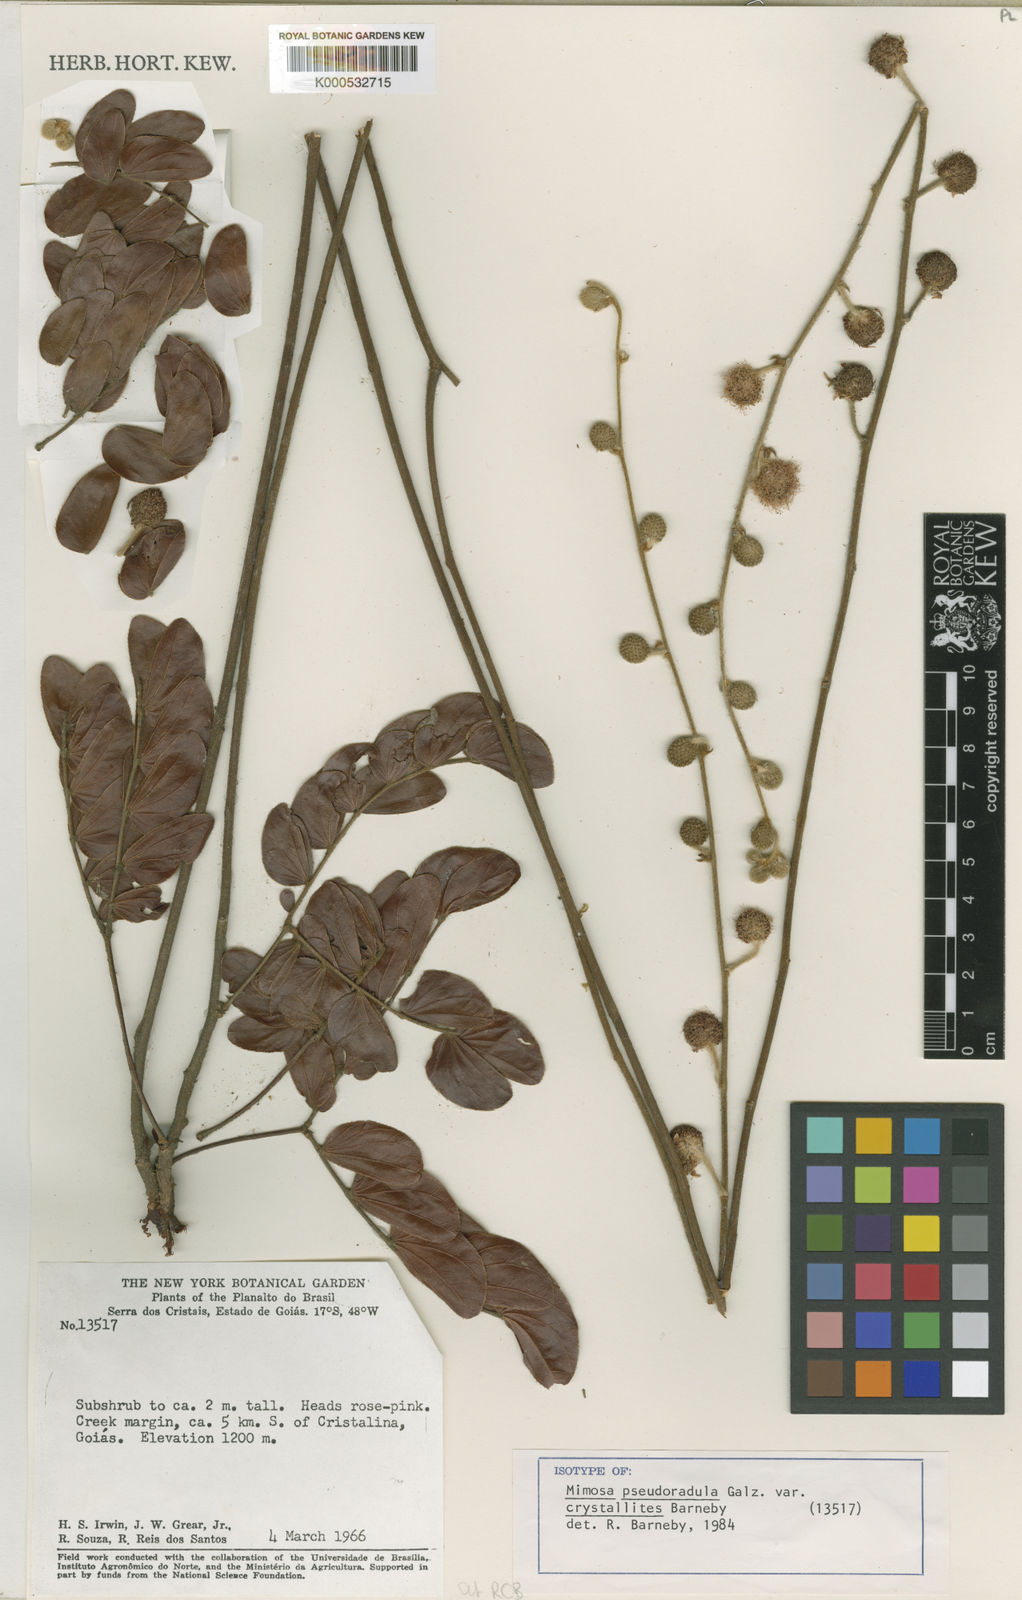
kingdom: Plantae
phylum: Tracheophyta
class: Magnoliopsida
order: Fabales
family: Fabaceae
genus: Mimosa
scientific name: Mimosa detonsa
